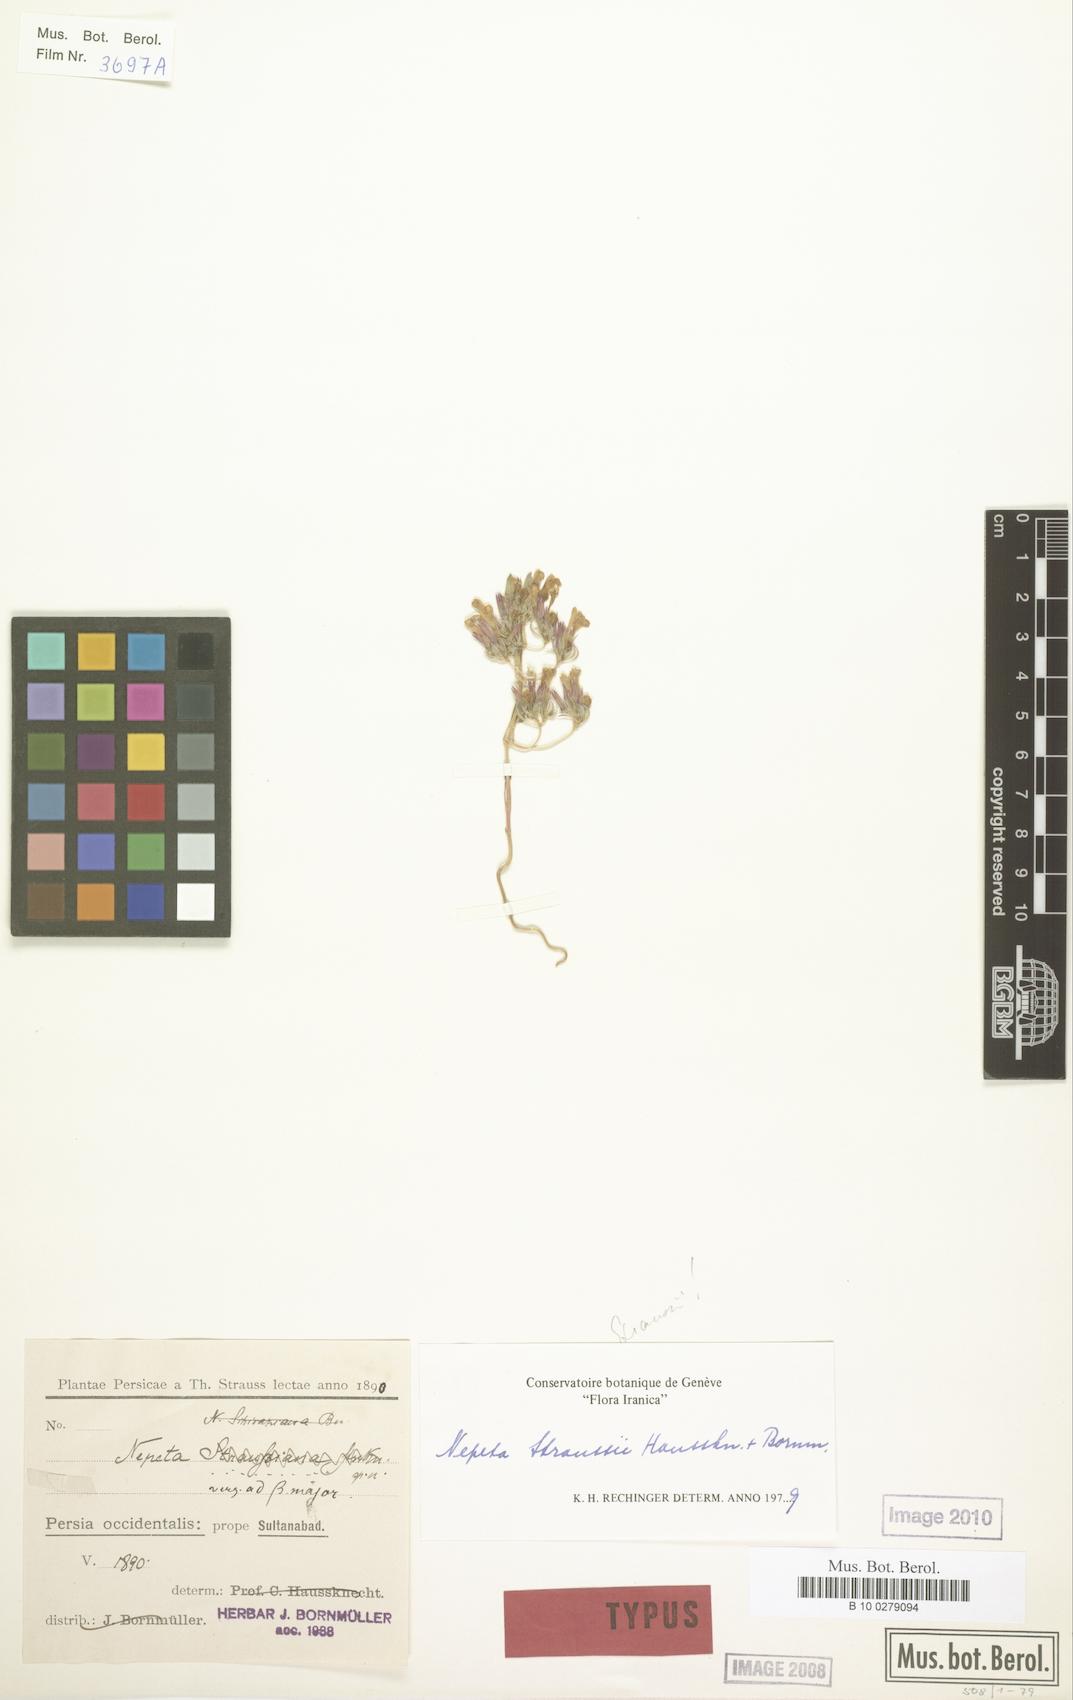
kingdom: Plantae
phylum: Tracheophyta
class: Magnoliopsida
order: Lamiales
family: Lamiaceae
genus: Nepeta
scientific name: Nepeta straussii
